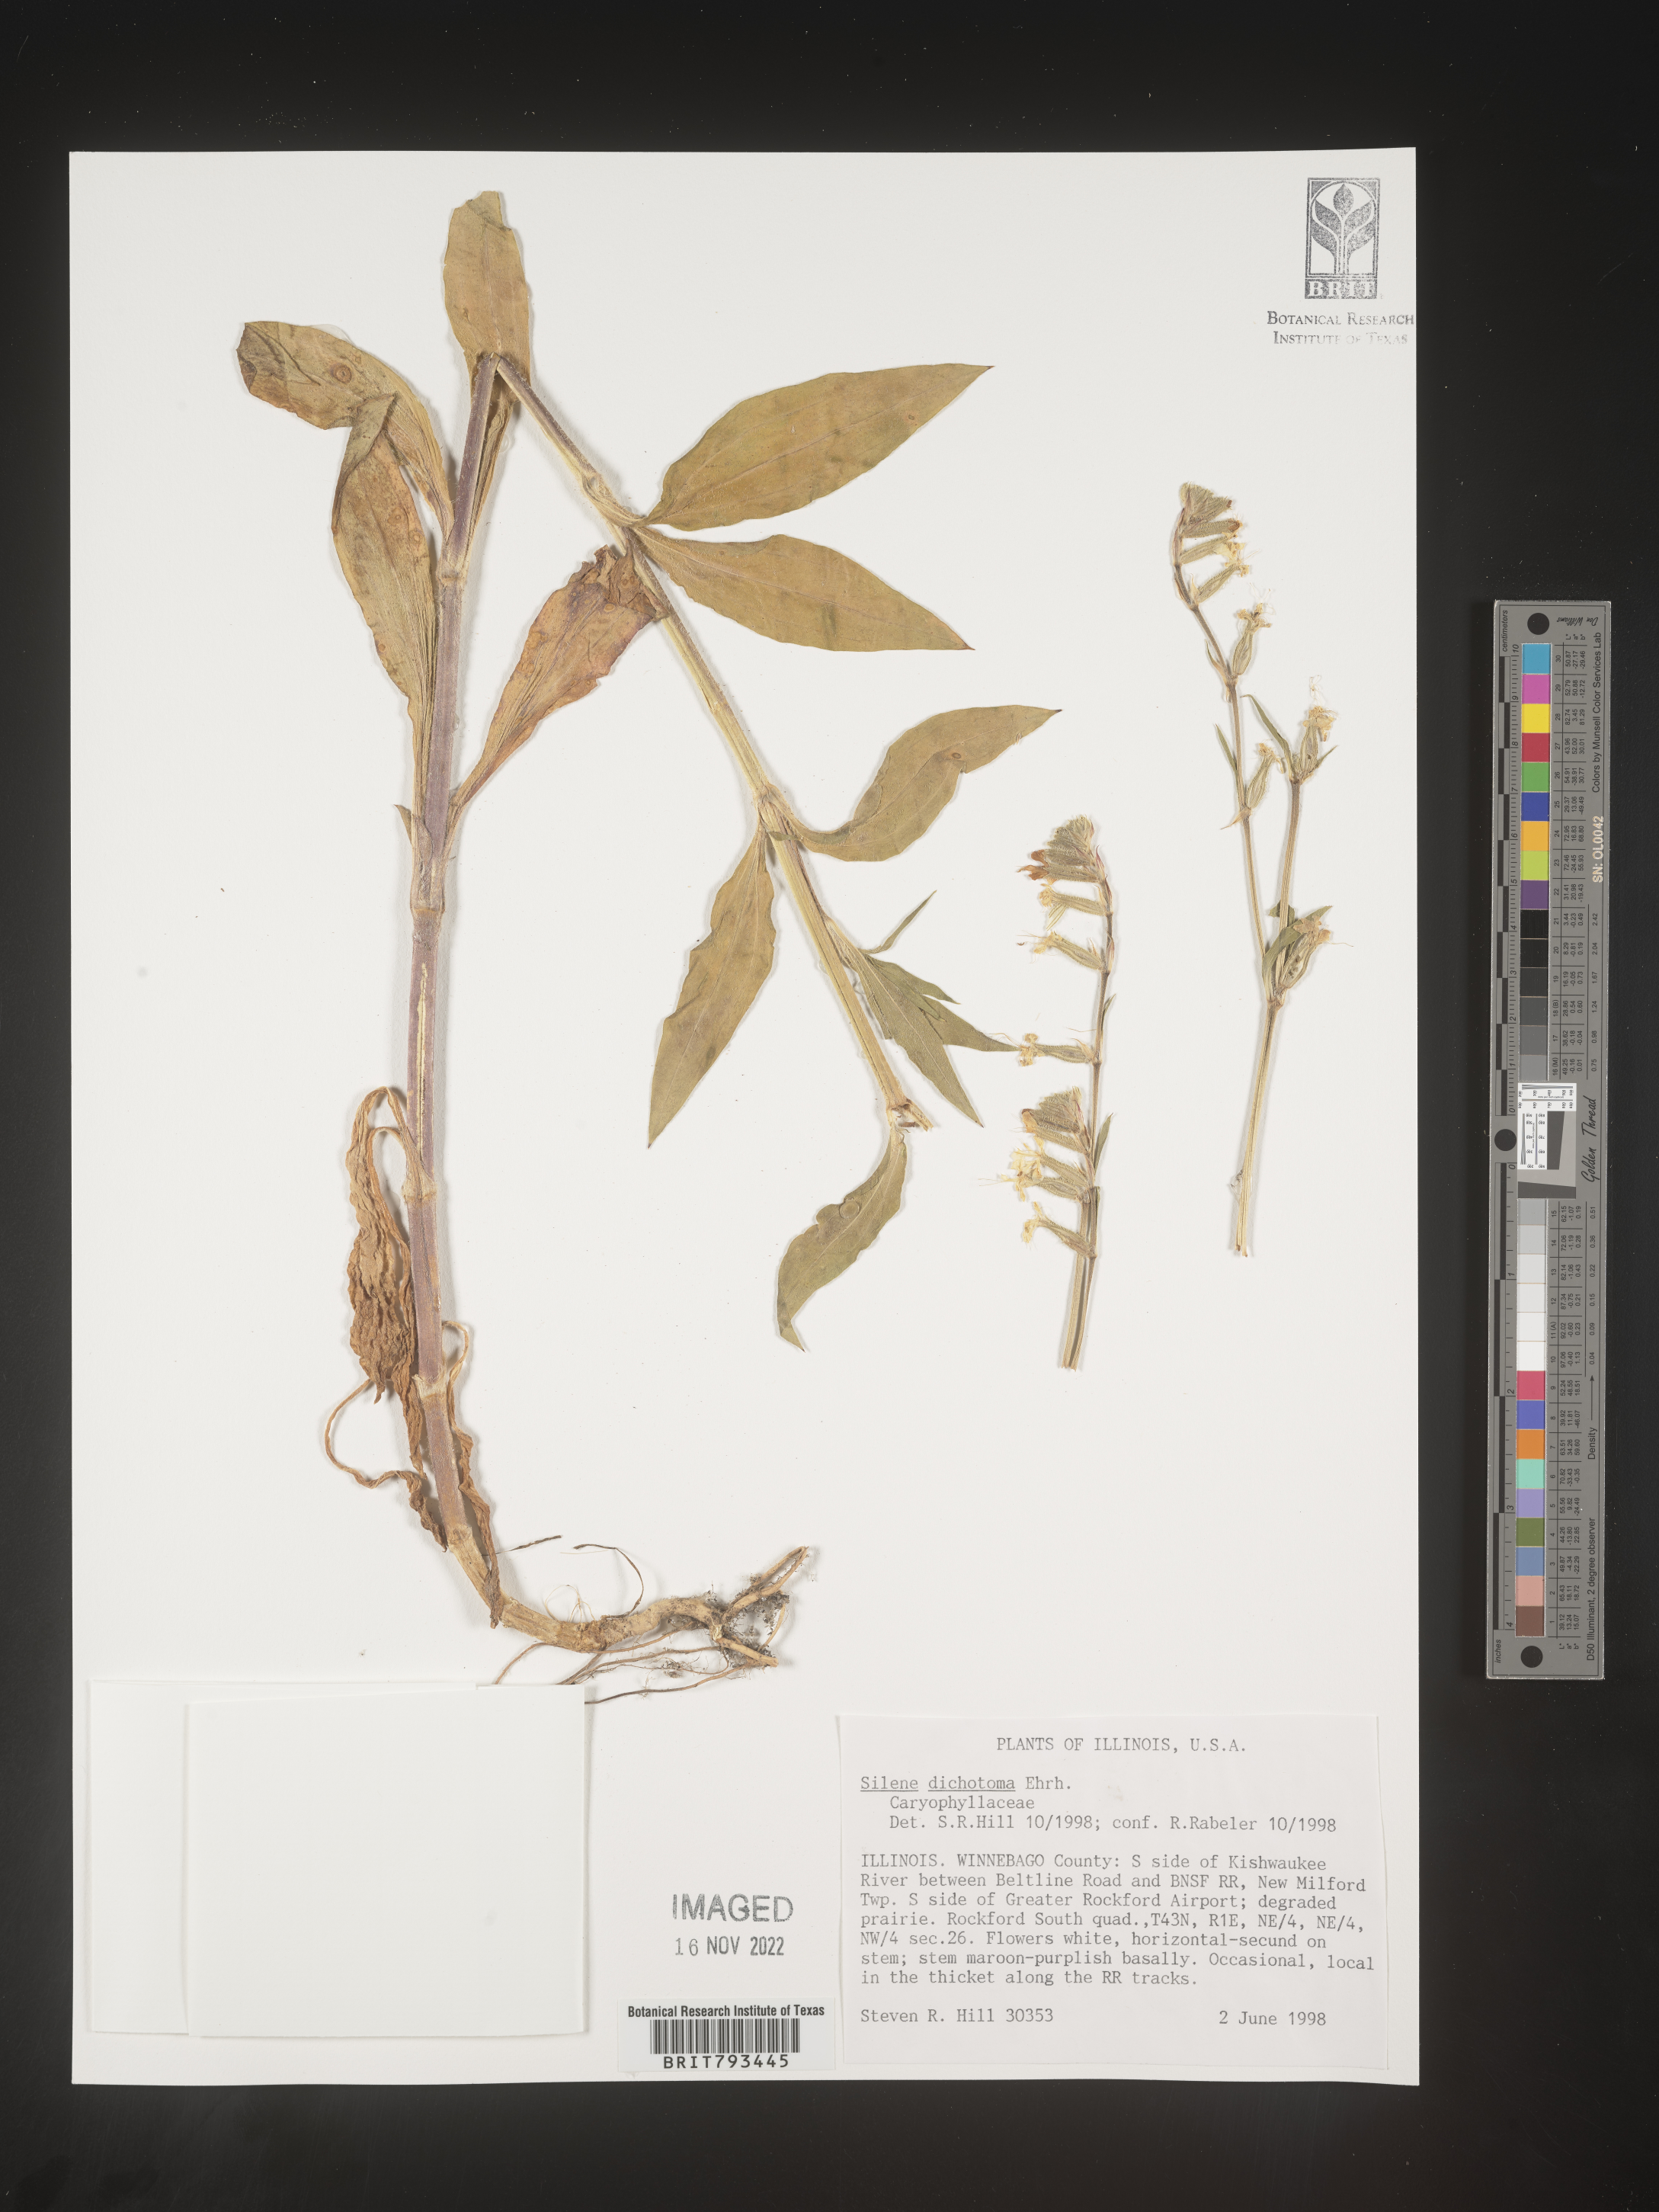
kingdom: Plantae
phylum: Tracheophyta
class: Magnoliopsida
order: Caryophyllales
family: Caryophyllaceae
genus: Silene
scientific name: Silene dichotoma
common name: Forked catchfly
